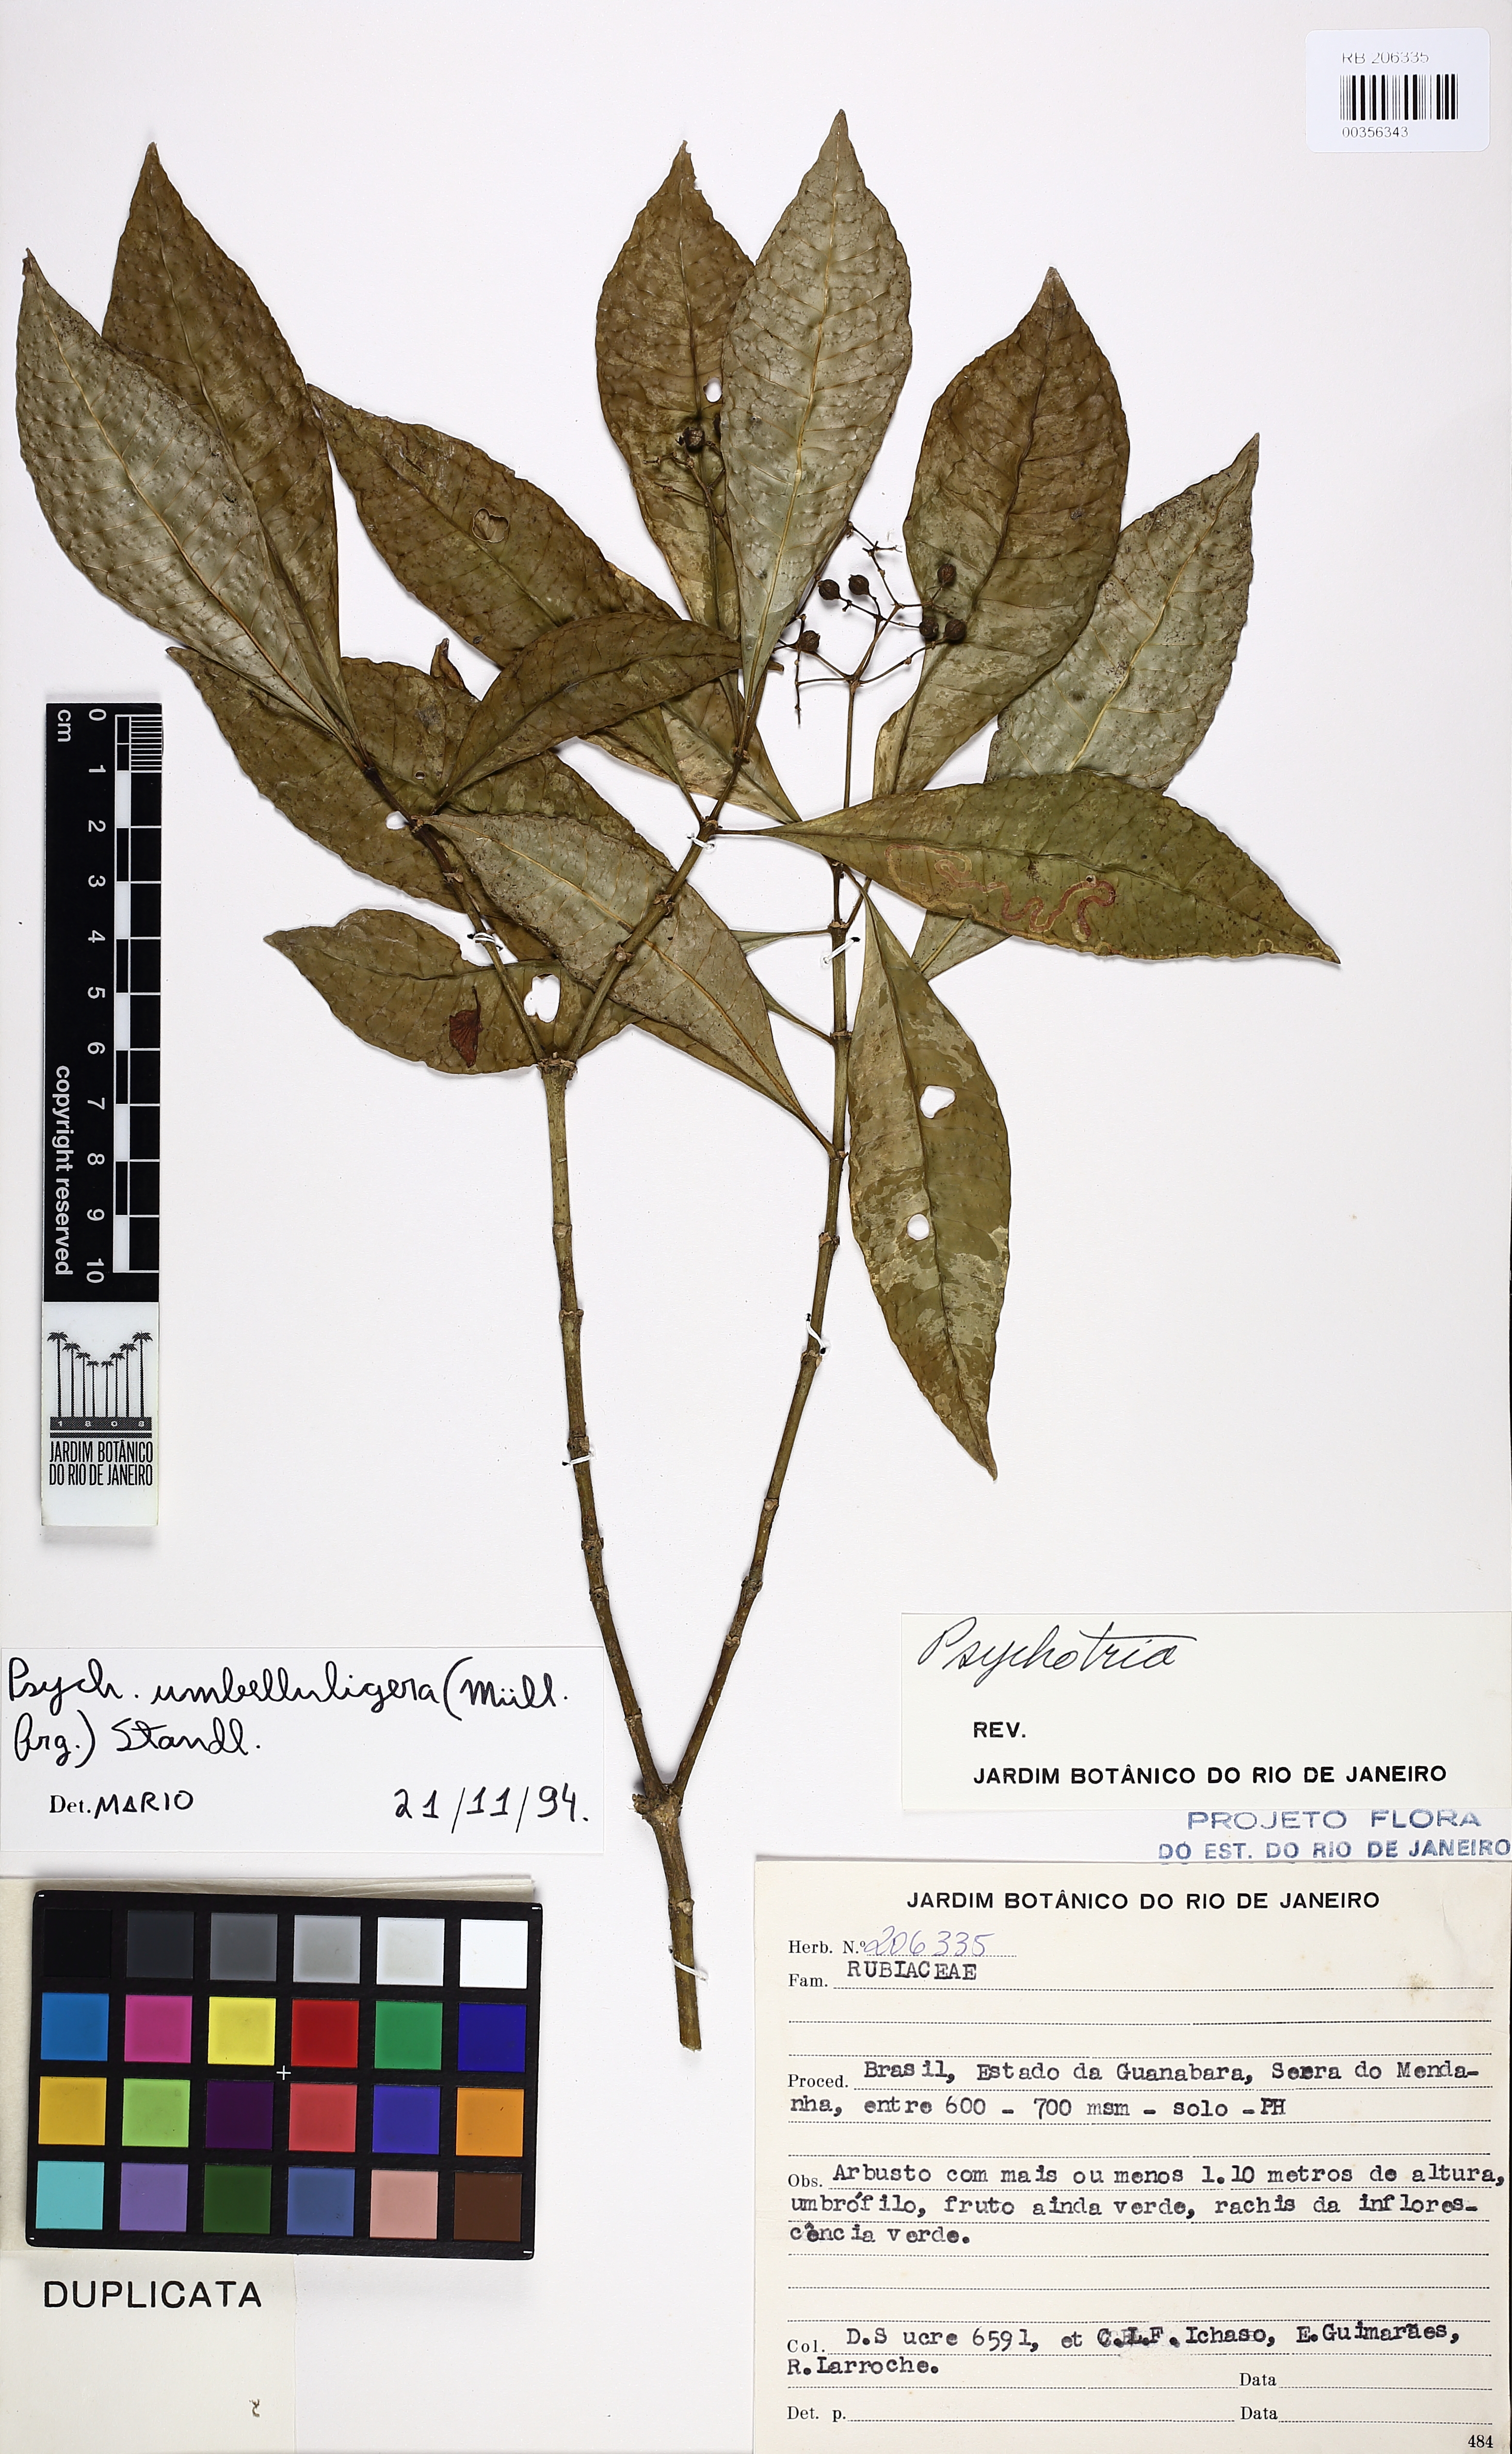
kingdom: Plantae
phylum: Tracheophyta
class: Magnoliopsida
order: Gentianales
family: Rubiaceae
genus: Eumachia
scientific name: Eumachia cymuligera
